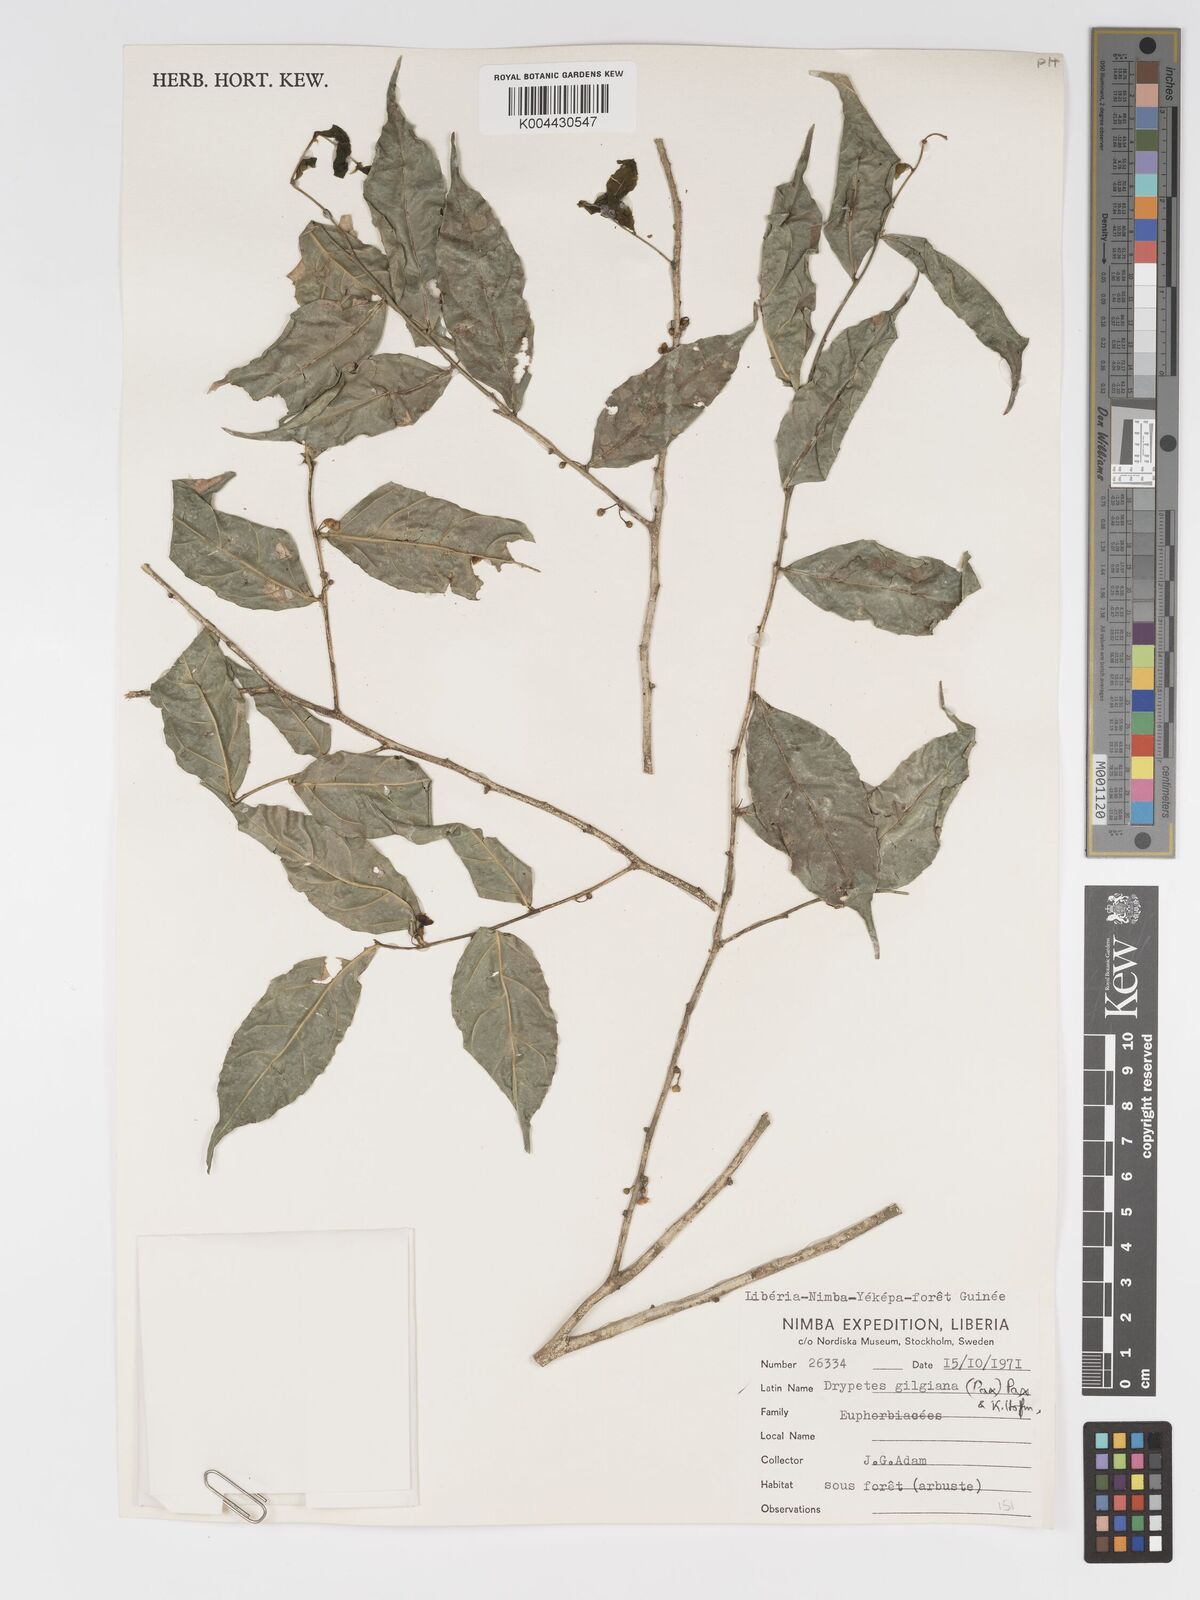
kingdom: Plantae
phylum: Tracheophyta
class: Magnoliopsida
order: Malpighiales
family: Putranjivaceae
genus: Drypetes
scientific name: Drypetes gilgiana
